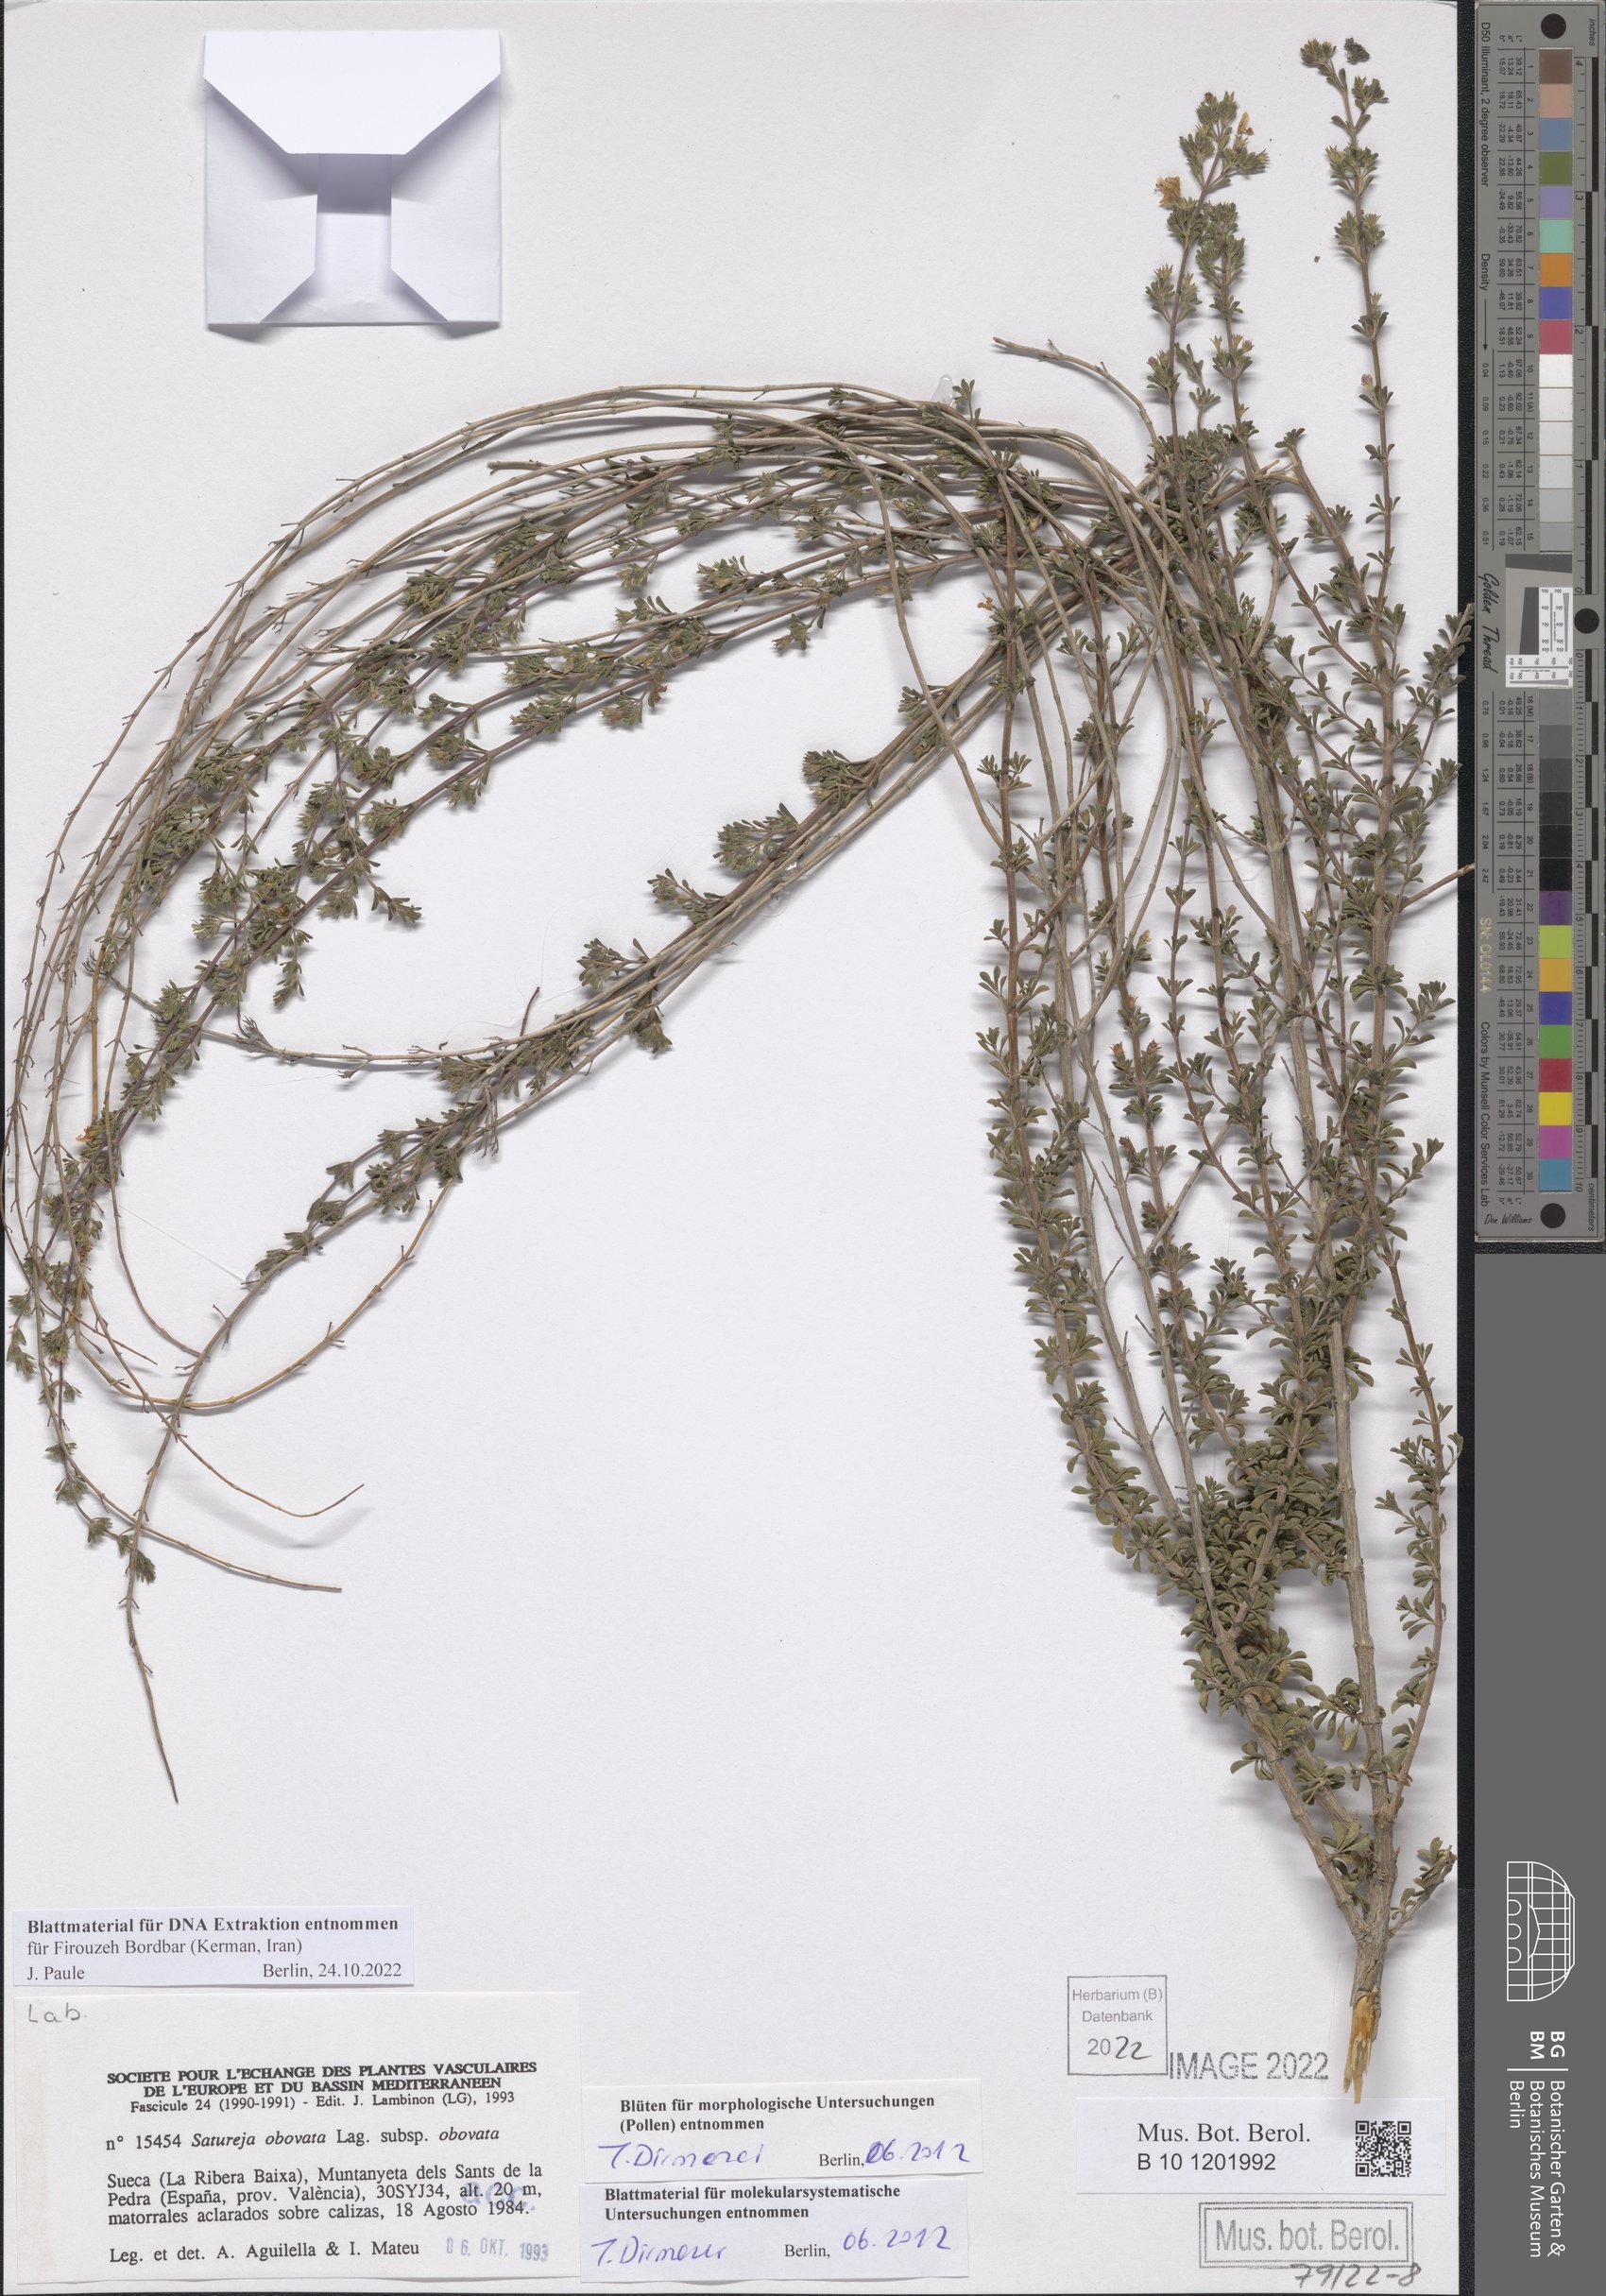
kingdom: Plantae
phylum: Tracheophyta
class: Magnoliopsida
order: Lamiales
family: Lamiaceae
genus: Satureja
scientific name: Satureja cuneifolia
